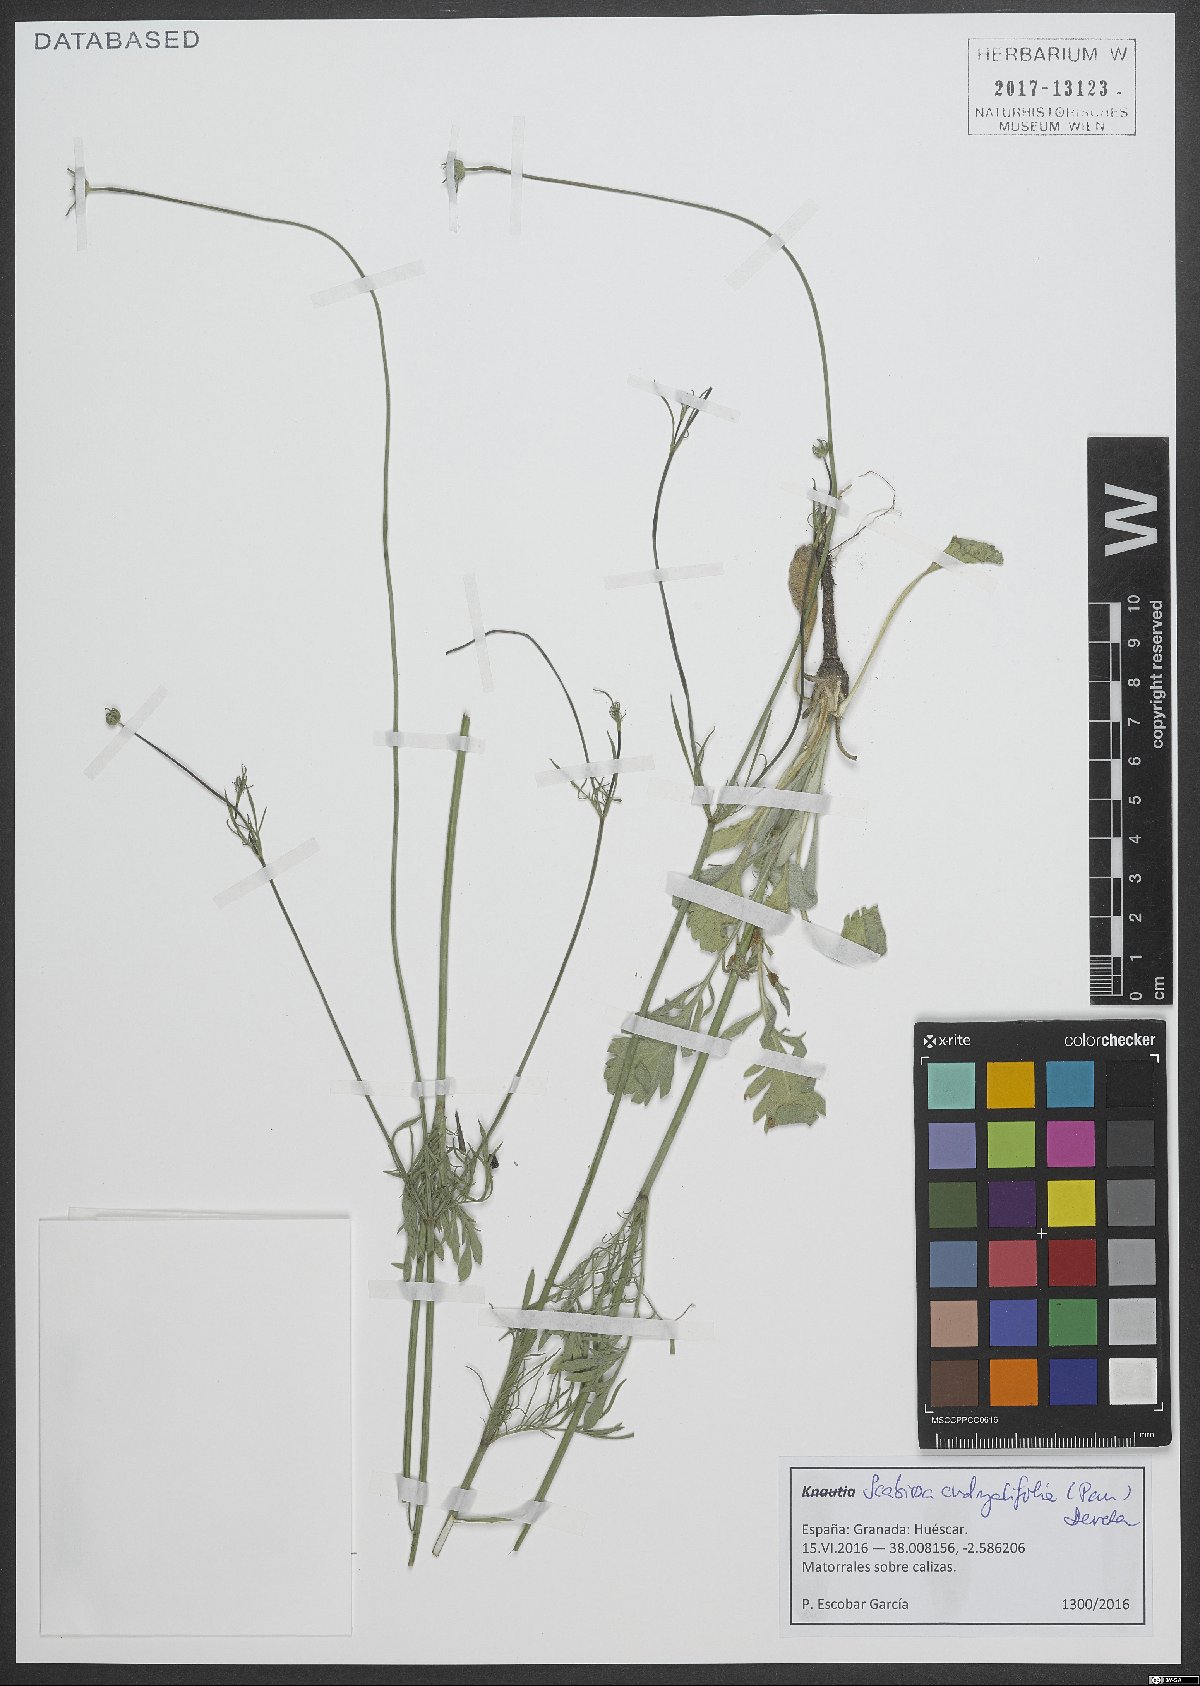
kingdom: Plantae
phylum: Tracheophyta
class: Magnoliopsida
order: Dipsacales
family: Caprifoliaceae
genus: Scabiosa
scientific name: Scabiosa andryalifolia
